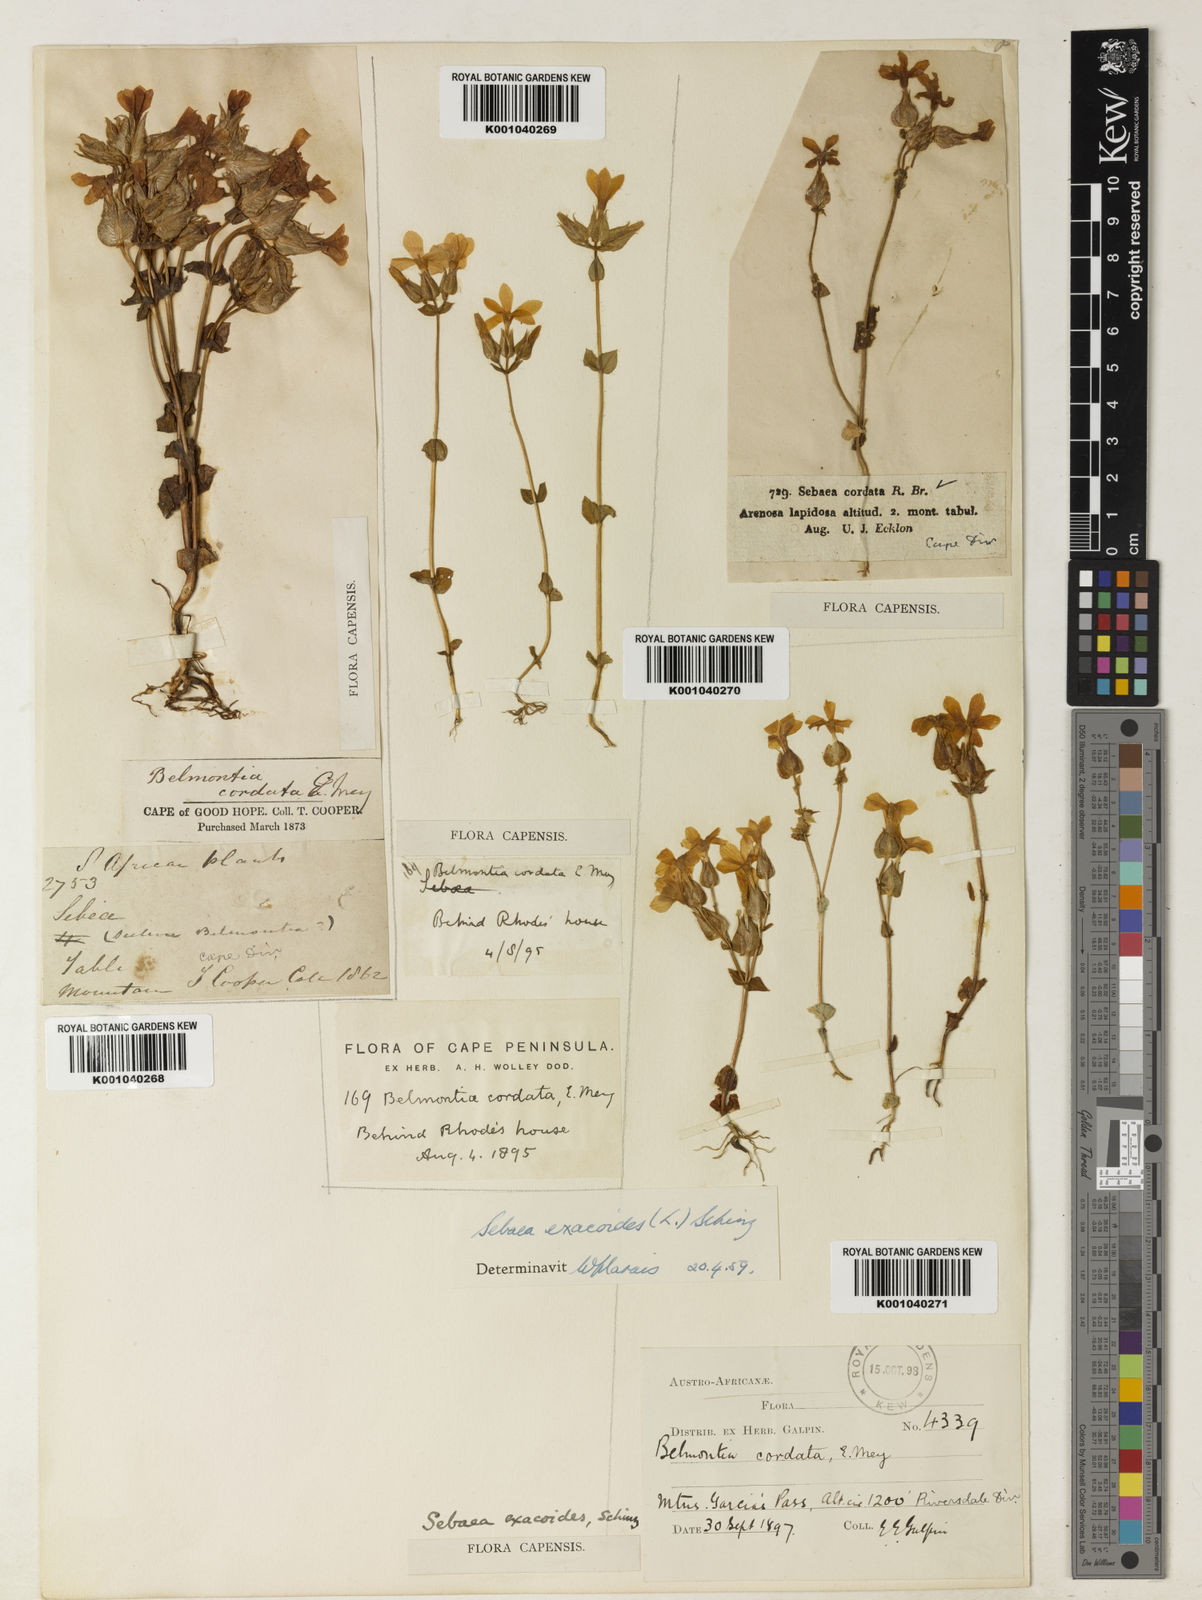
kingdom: Plantae
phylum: Tracheophyta
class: Magnoliopsida
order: Gentianales
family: Gentianaceae
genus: Sebaea
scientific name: Sebaea exacoides
